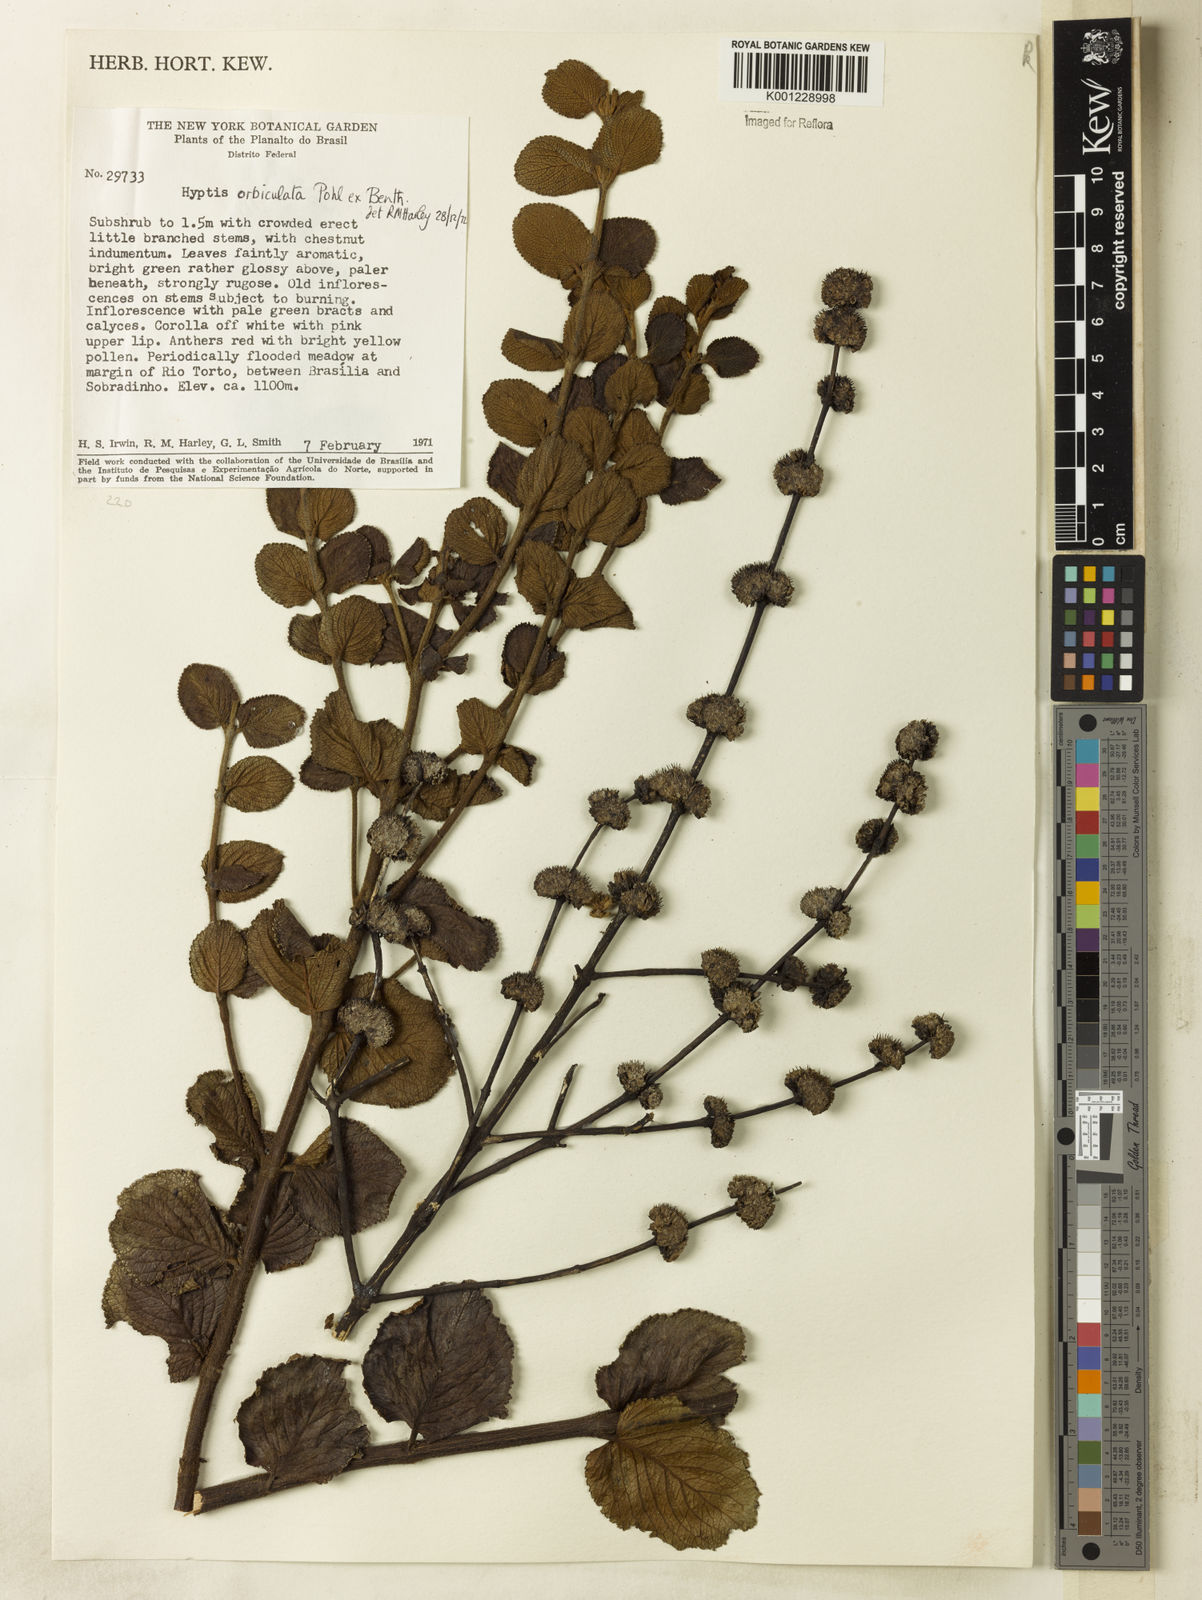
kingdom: Plantae
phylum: Tracheophyta
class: Magnoliopsida
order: Lamiales
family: Lamiaceae
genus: Hyptis
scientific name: Hyptis orbiculata
